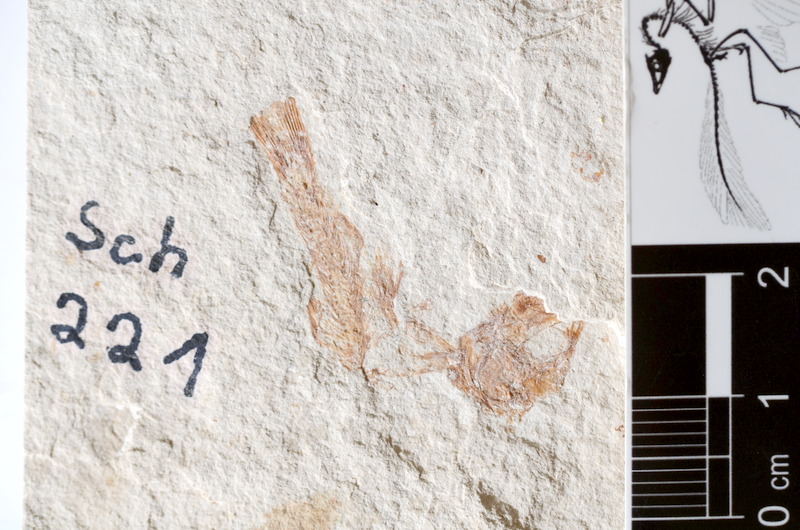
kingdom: Animalia
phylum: Chordata
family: Ascalaboidae
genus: Tharsis
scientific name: Tharsis dubius
